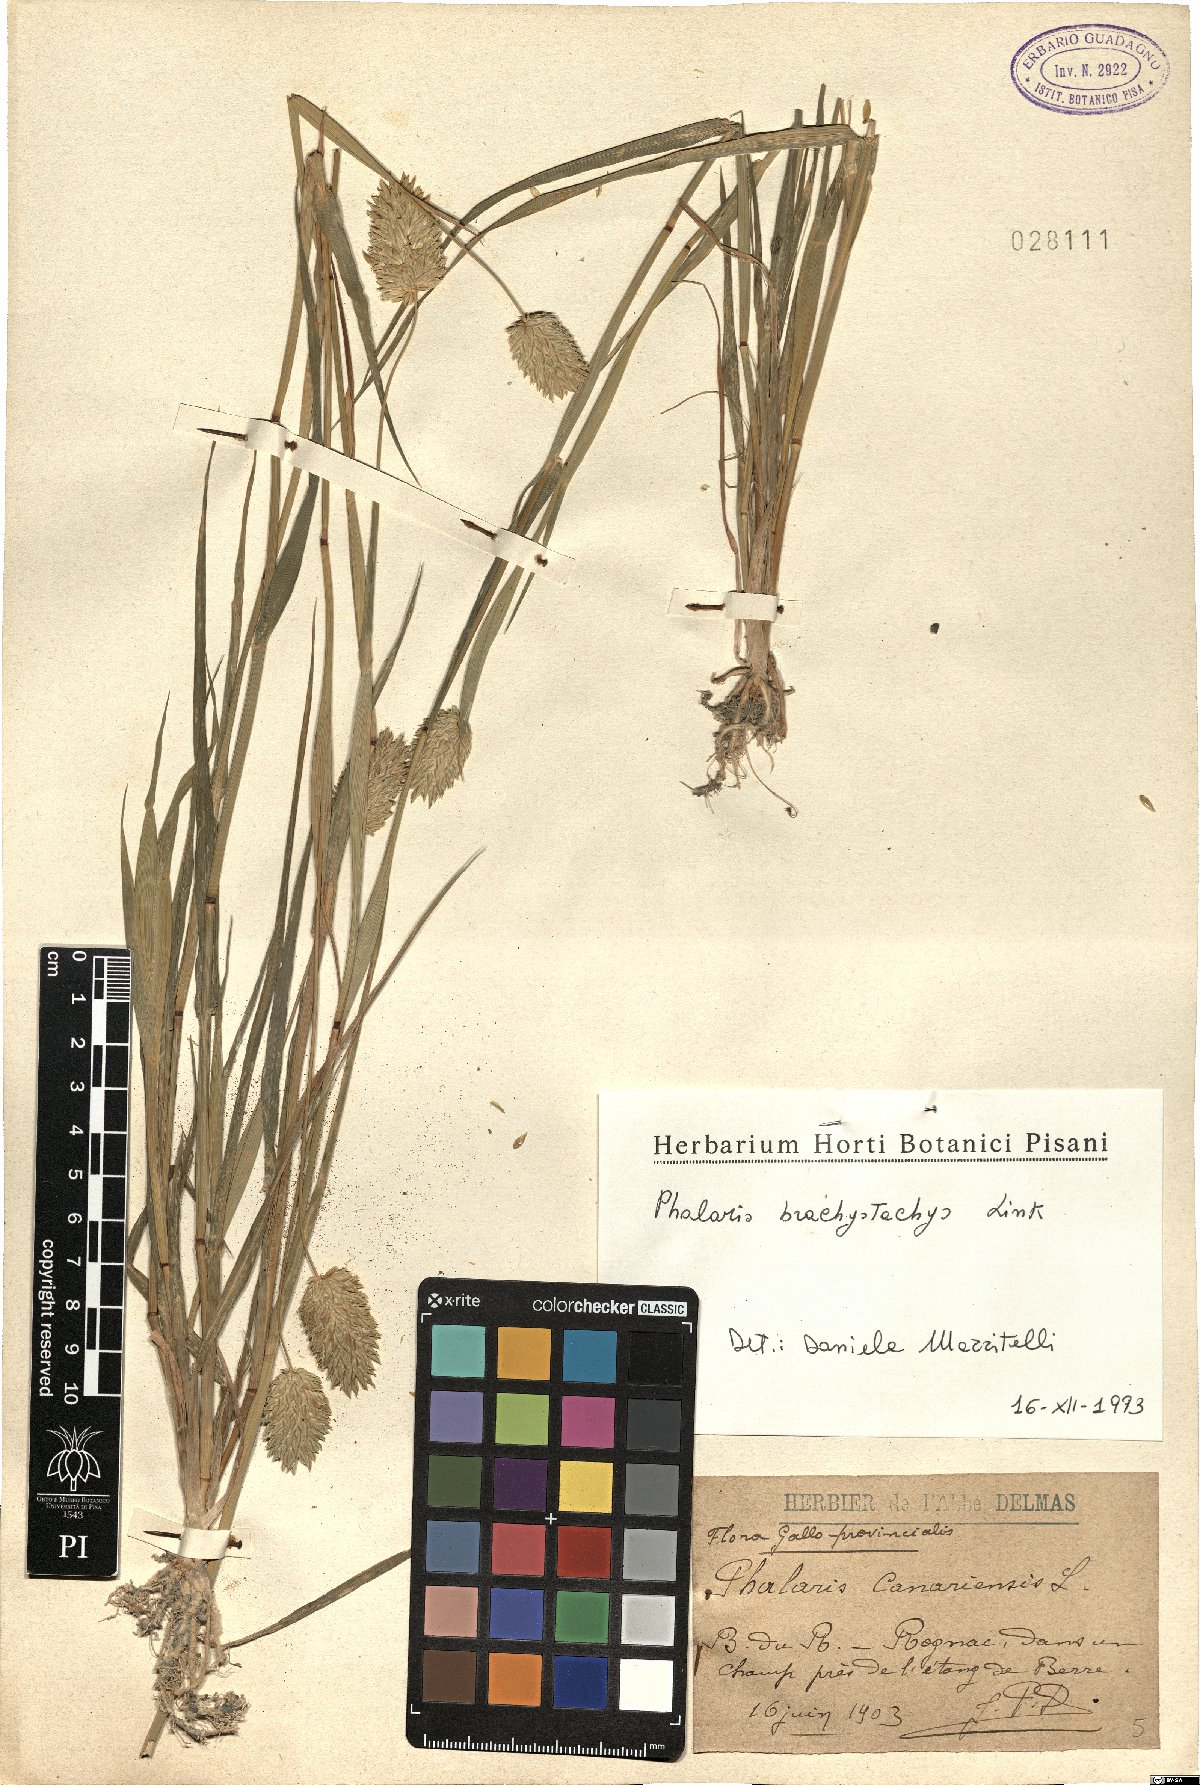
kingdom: Plantae
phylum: Tracheophyta
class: Liliopsida
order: Poales
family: Poaceae
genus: Phalaris
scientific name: Phalaris brachystachys
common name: Confused canary-grass
